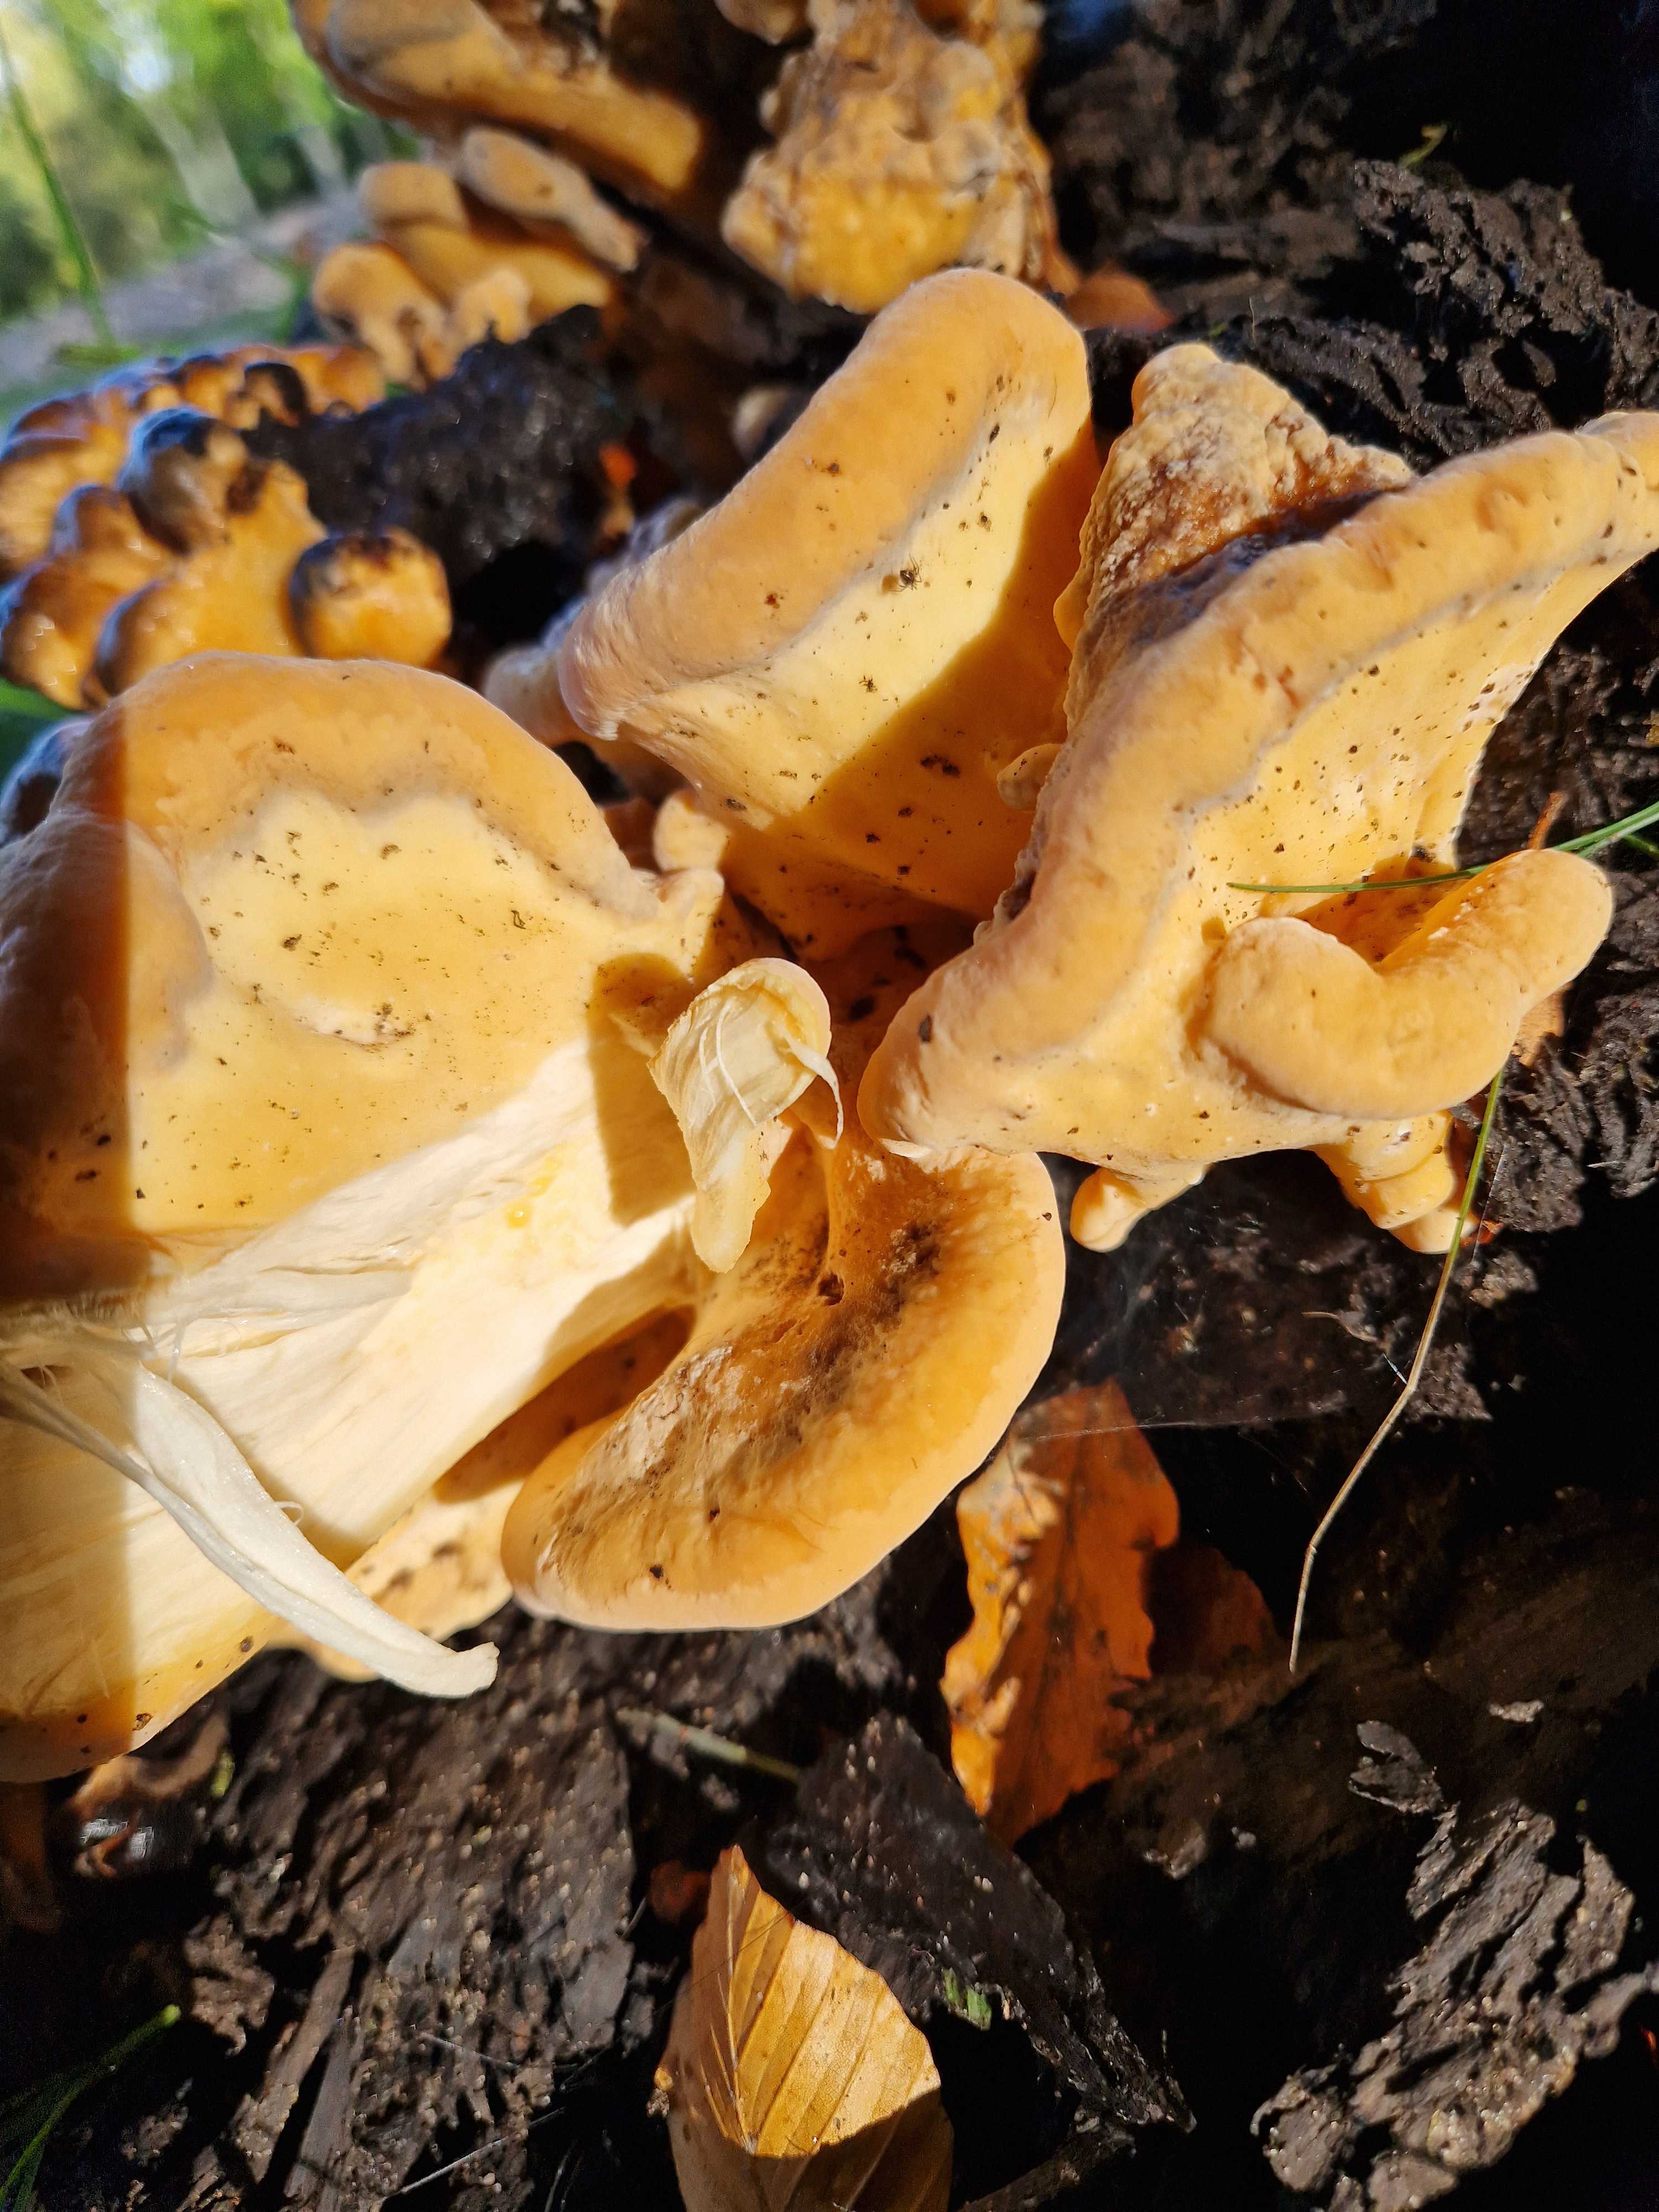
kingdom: Fungi
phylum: Basidiomycota
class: Agaricomycetes
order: Polyporales
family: Meripilaceae
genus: Meripilus
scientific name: Meripilus giganteus
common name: kæmpeporesvamp
